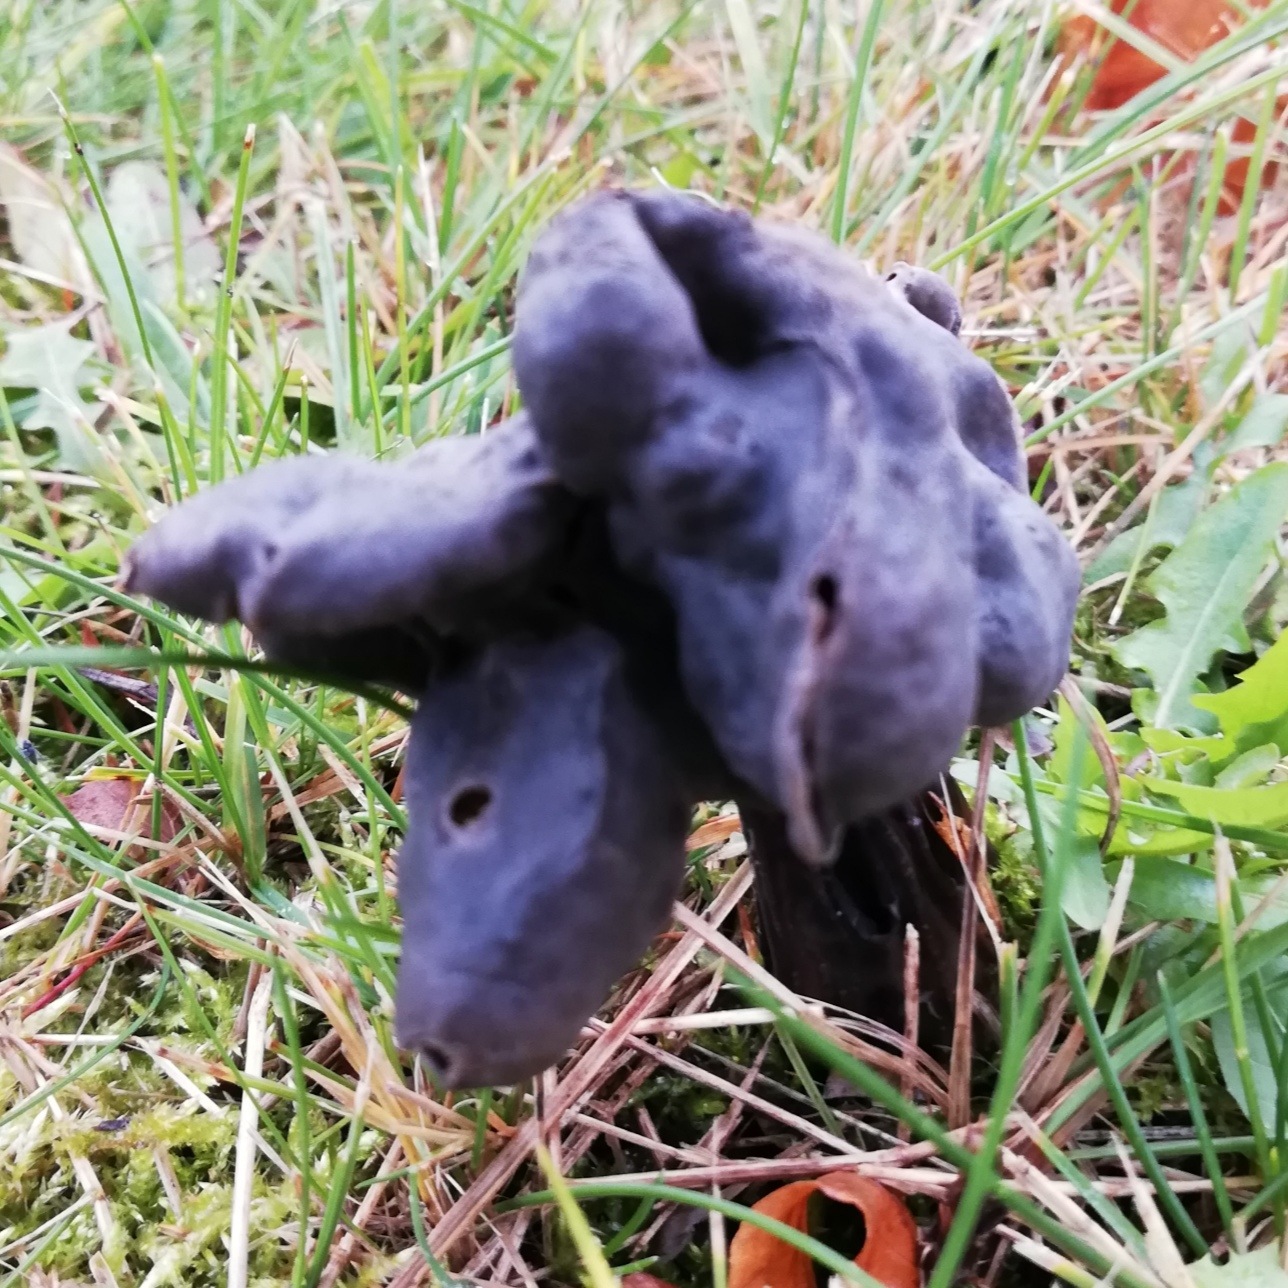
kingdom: Fungi
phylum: Ascomycota
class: Pezizomycetes
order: Pezizales
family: Helvellaceae
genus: Helvella
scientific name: Helvella lacunosa
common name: grubet foldhat
